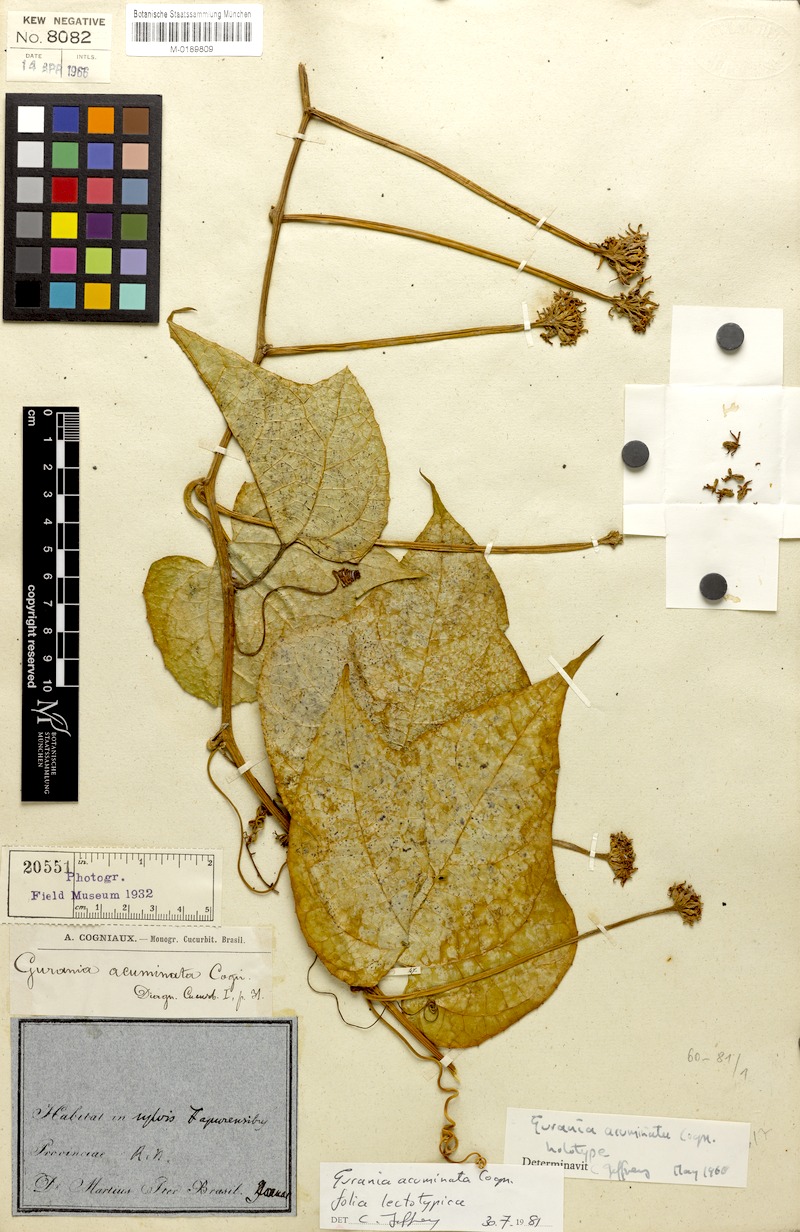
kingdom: Plantae
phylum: Tracheophyta
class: Magnoliopsida
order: Cucurbitales
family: Cucurbitaceae
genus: Gurania
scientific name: Gurania acuminata
